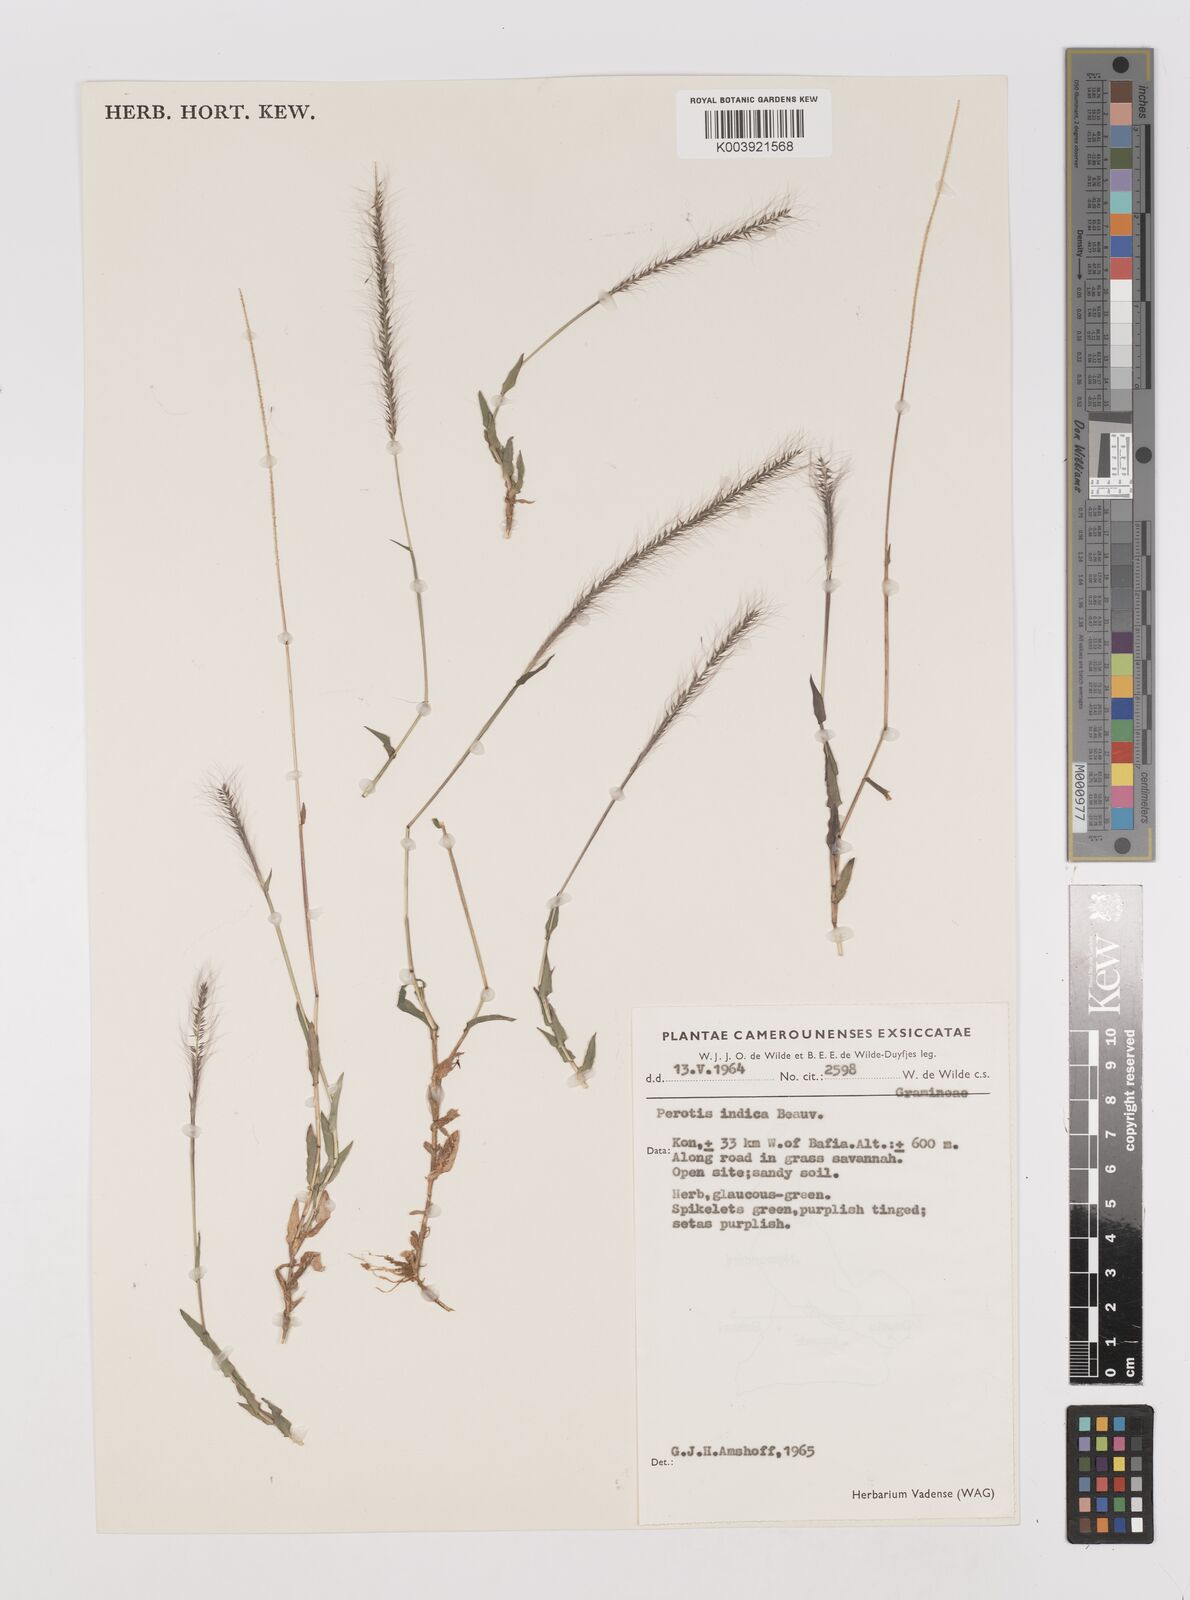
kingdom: Plantae
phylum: Tracheophyta
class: Liliopsida
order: Poales
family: Poaceae
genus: Perotis
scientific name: Perotis indica
